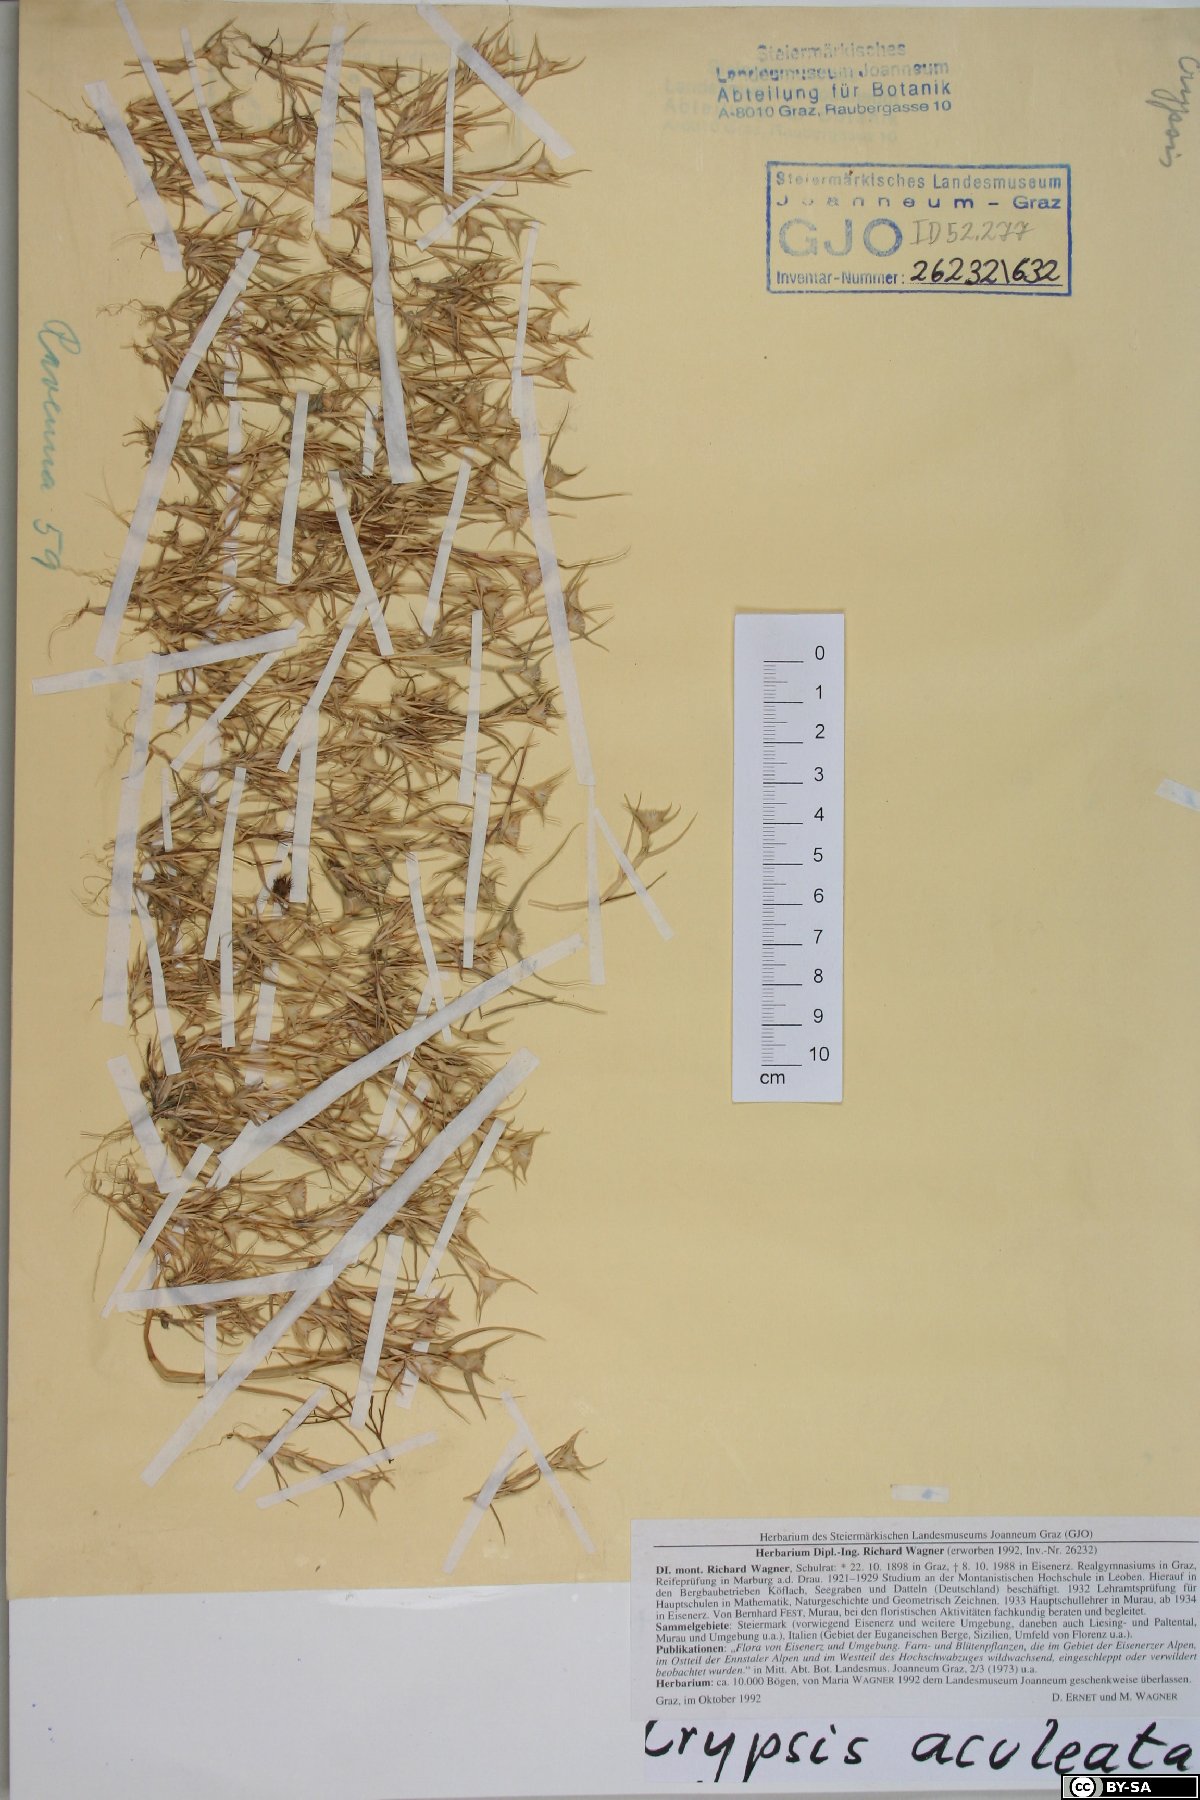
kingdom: Plantae
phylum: Tracheophyta
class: Liliopsida
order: Poales
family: Poaceae
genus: Sporobolus
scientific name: Sporobolus aculeatus
